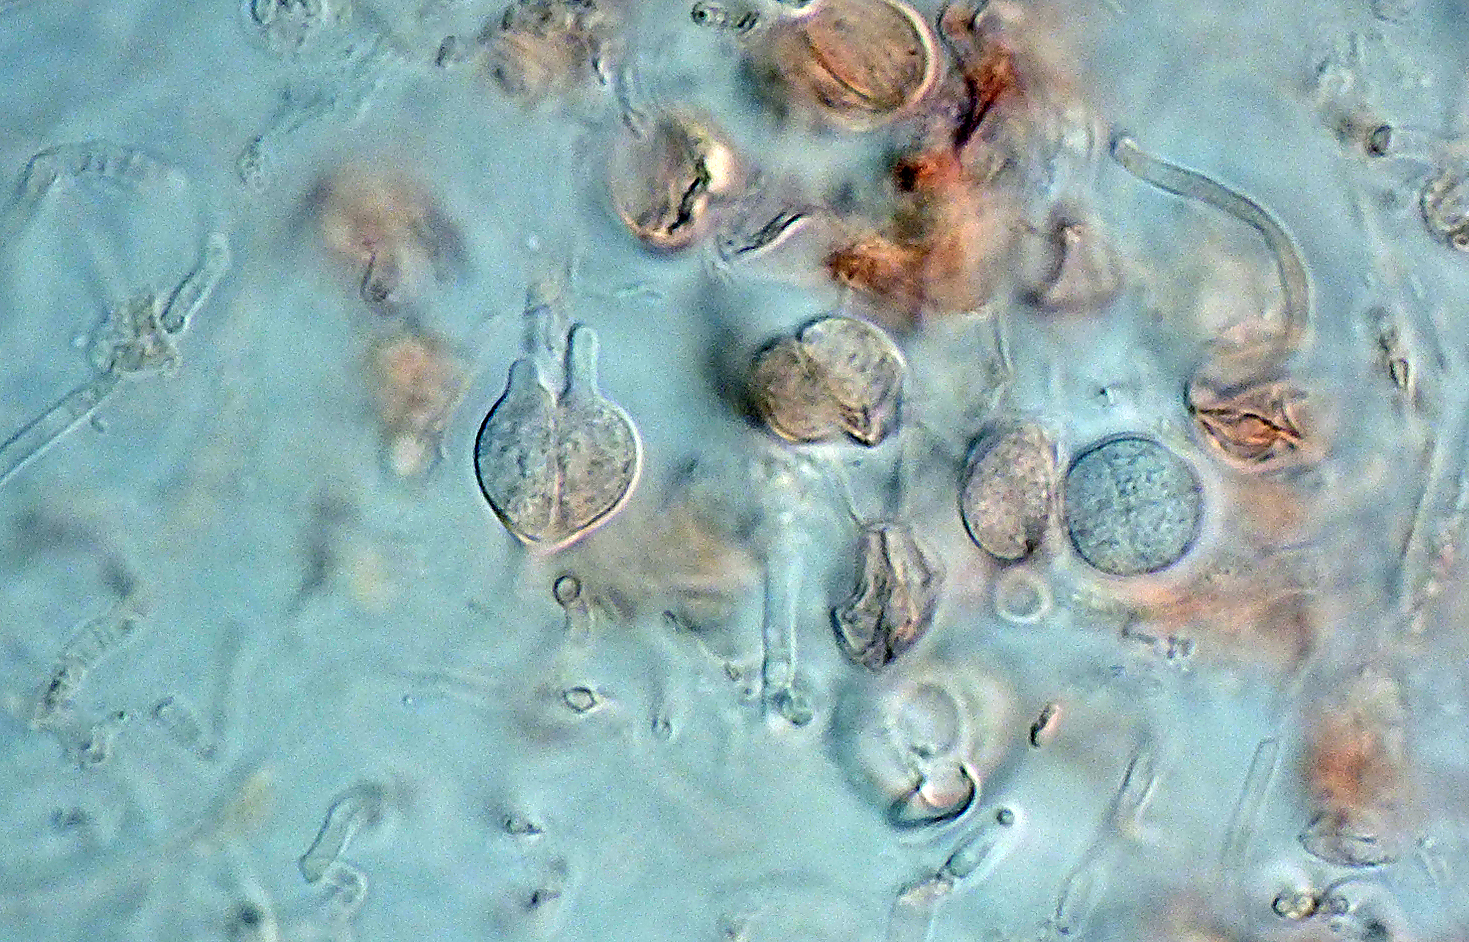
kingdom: Fungi
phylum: Basidiomycota
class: Tremellomycetes
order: Tremellales
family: Tremellaceae
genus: Tremella
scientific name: Tremella globispora
